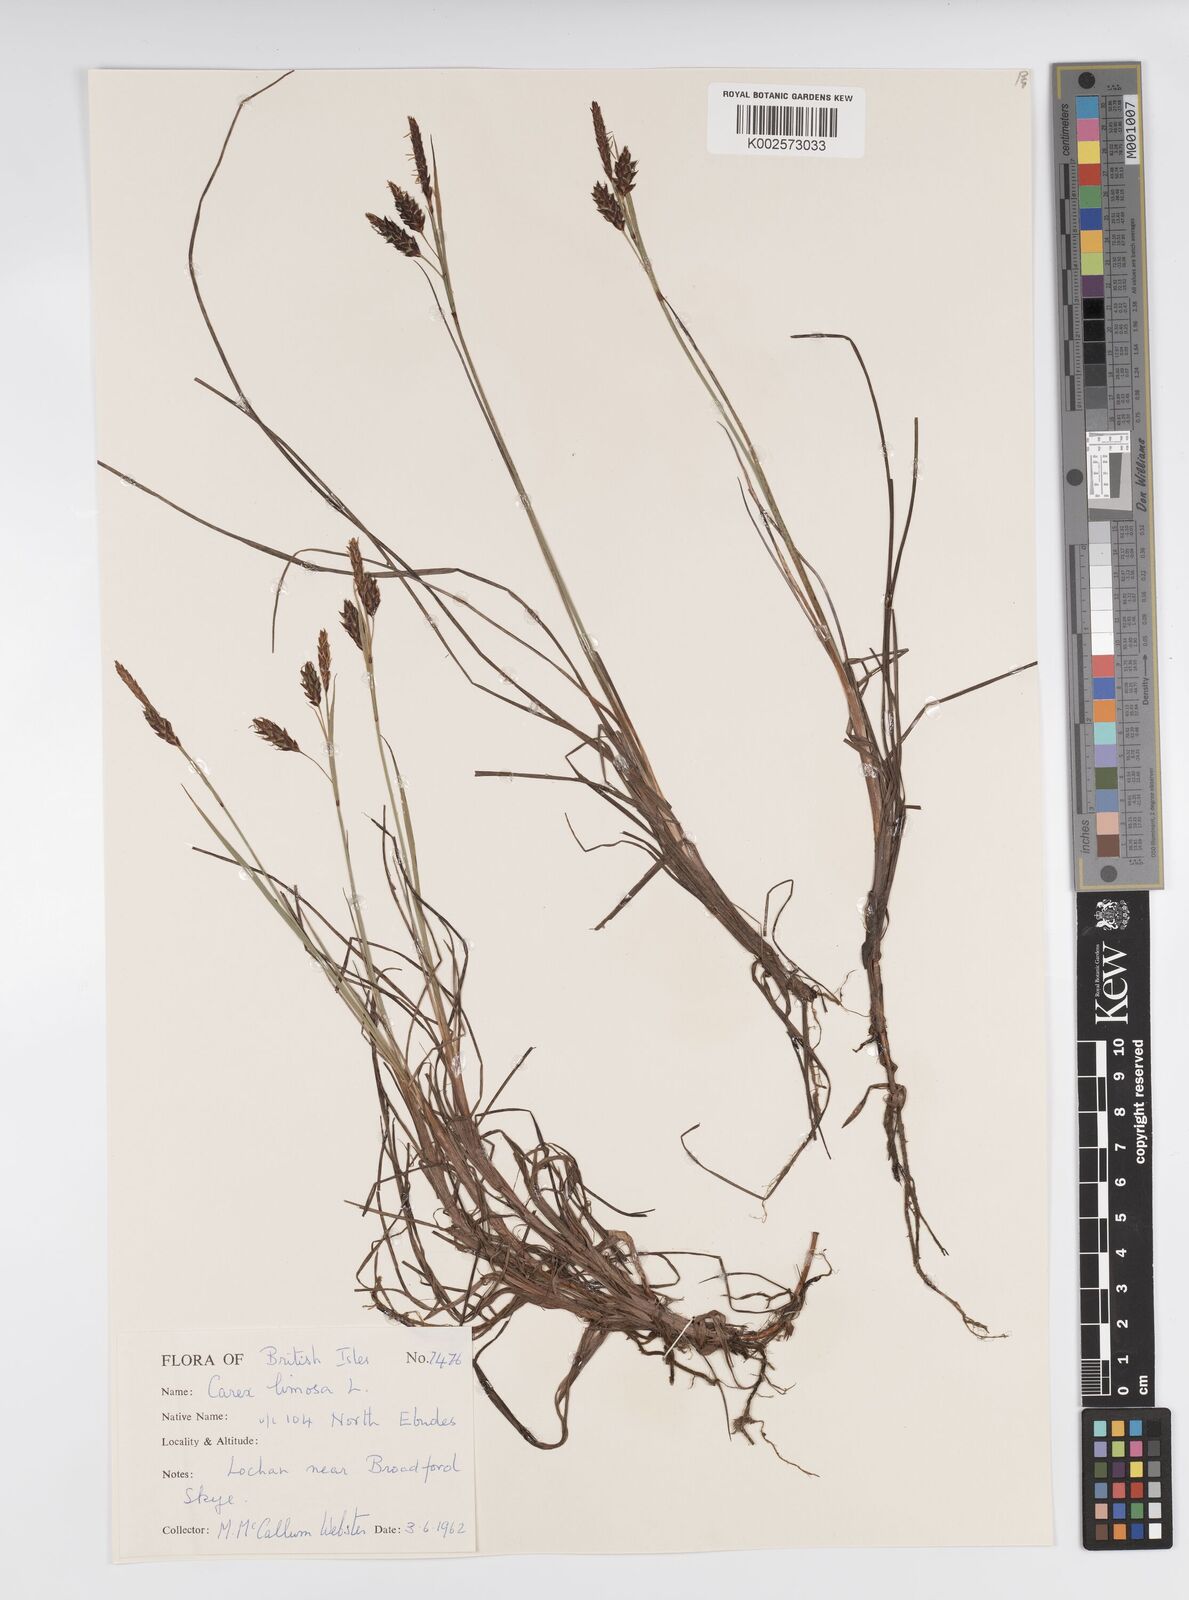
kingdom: Plantae
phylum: Tracheophyta
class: Liliopsida
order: Poales
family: Cyperaceae
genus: Carex
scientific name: Carex limosa
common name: Bog sedge
